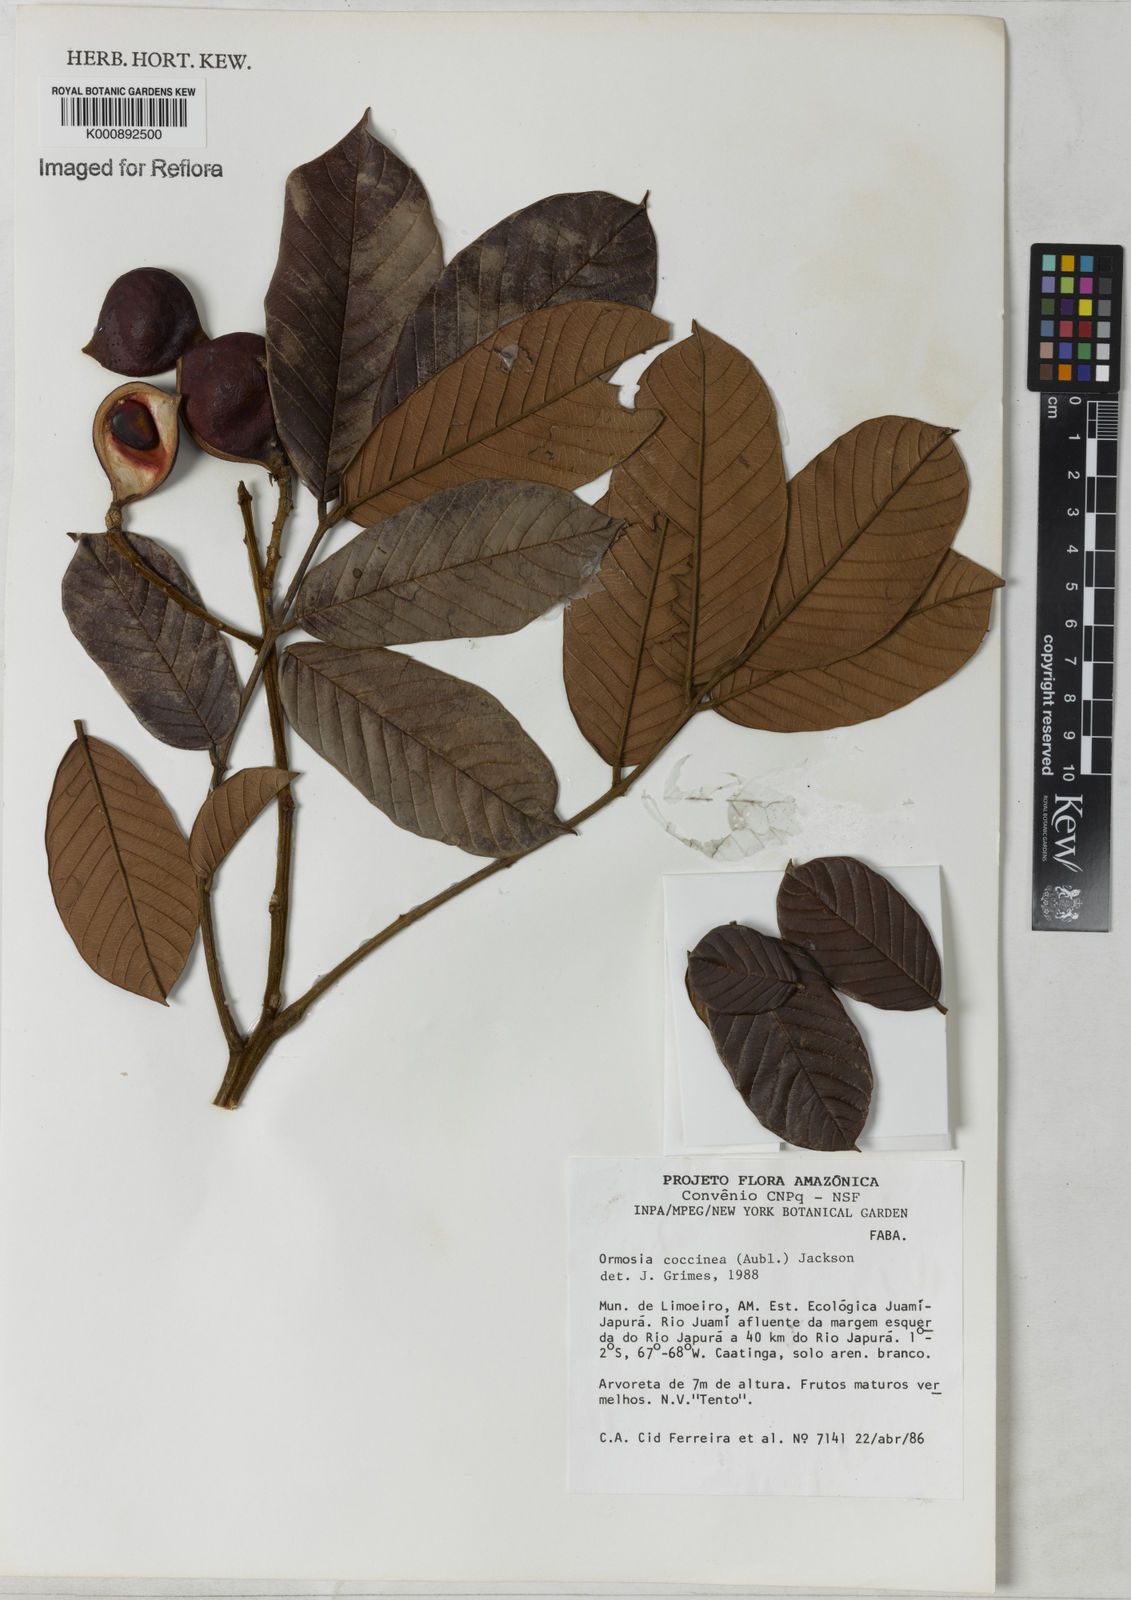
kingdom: Plantae
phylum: Tracheophyta
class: Magnoliopsida
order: Fabales
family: Fabaceae
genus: Ormosia
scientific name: Ormosia coccinea
